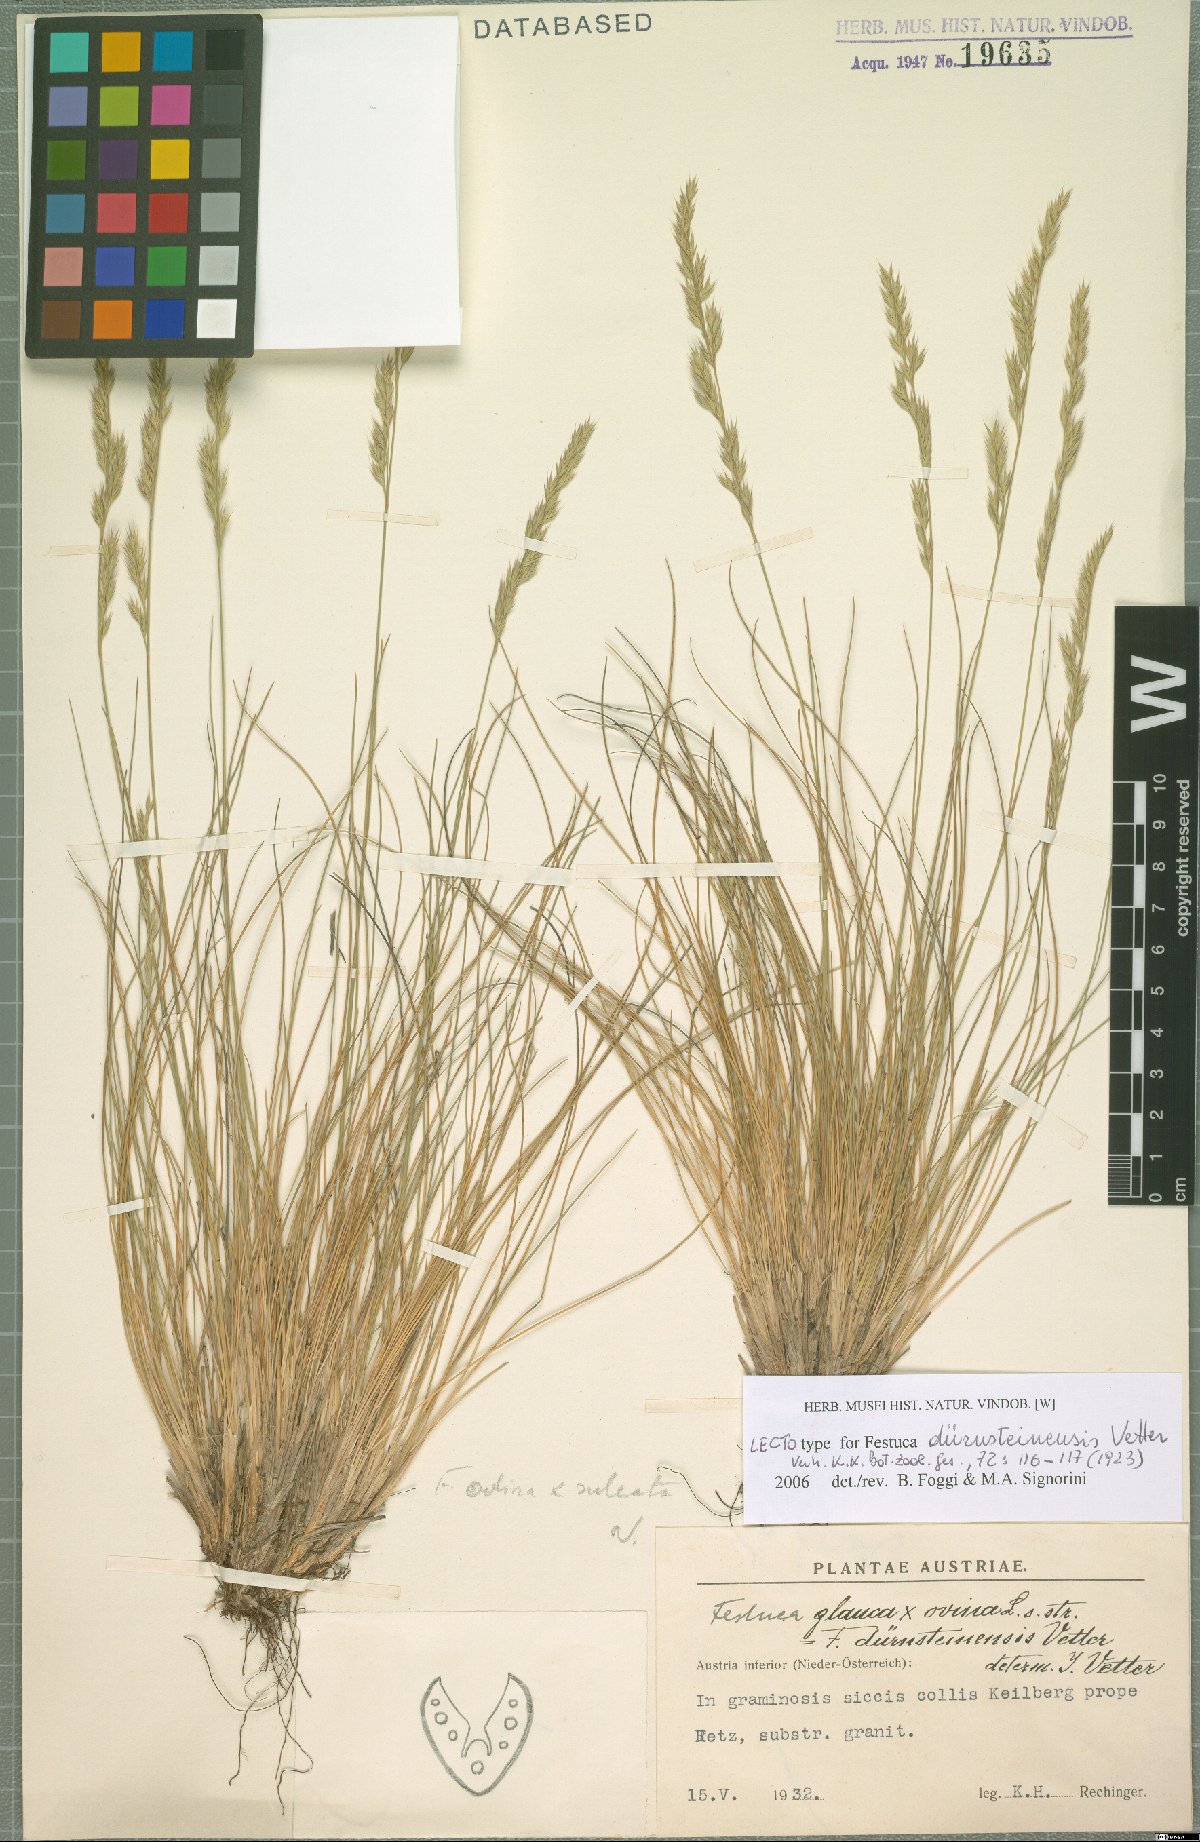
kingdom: Plantae
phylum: Tracheophyta
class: Liliopsida
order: Poales
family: Poaceae
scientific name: Poaceae
